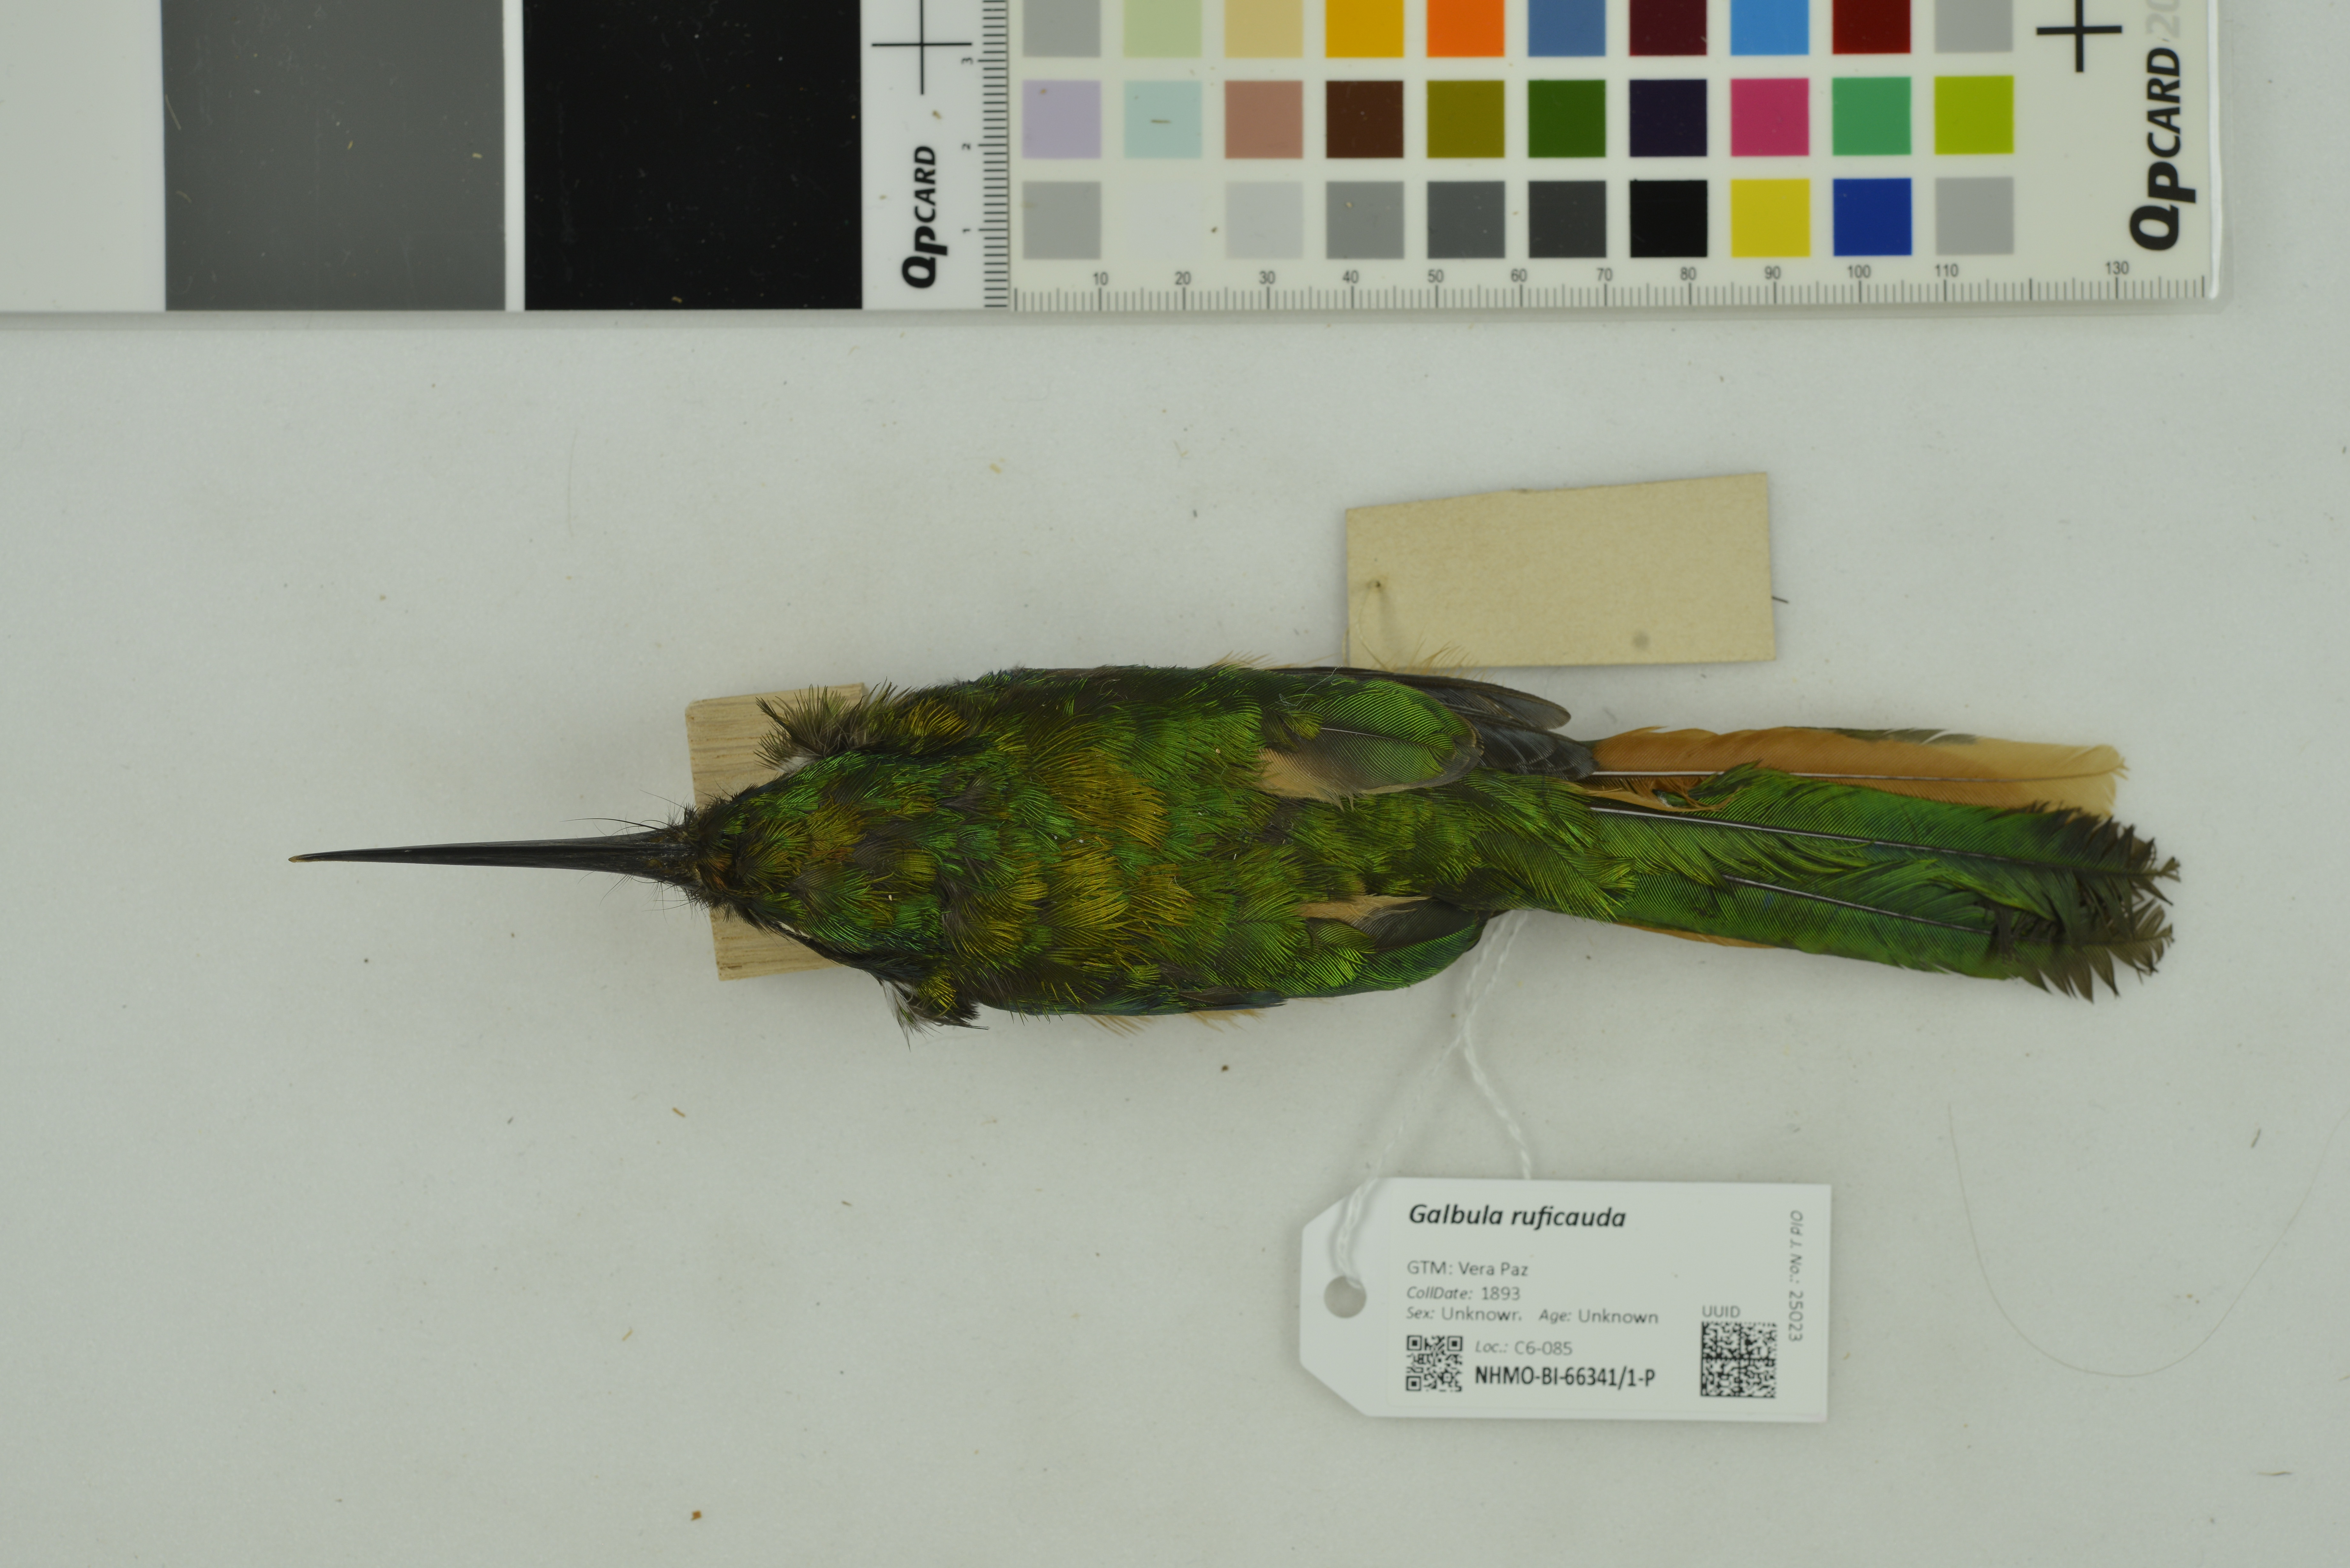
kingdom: Animalia
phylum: Chordata
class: Aves
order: Piciformes
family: Galbulidae
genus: Galbula
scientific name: Galbula ruficauda
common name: Rufous-tailed jacamar
